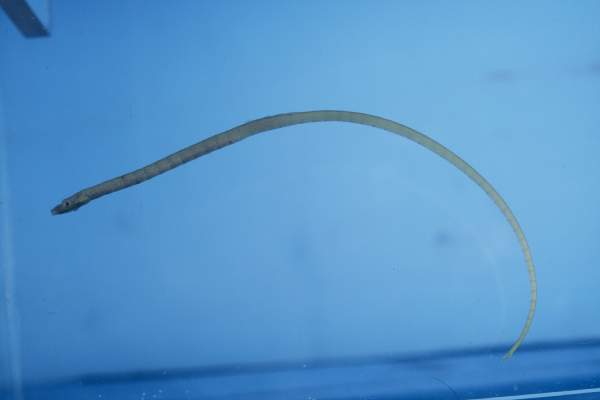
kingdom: Animalia
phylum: Chordata
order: Syngnathiformes
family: Syngnathidae
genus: Halicampus
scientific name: Halicampus boothae
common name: Booth's pipefish
